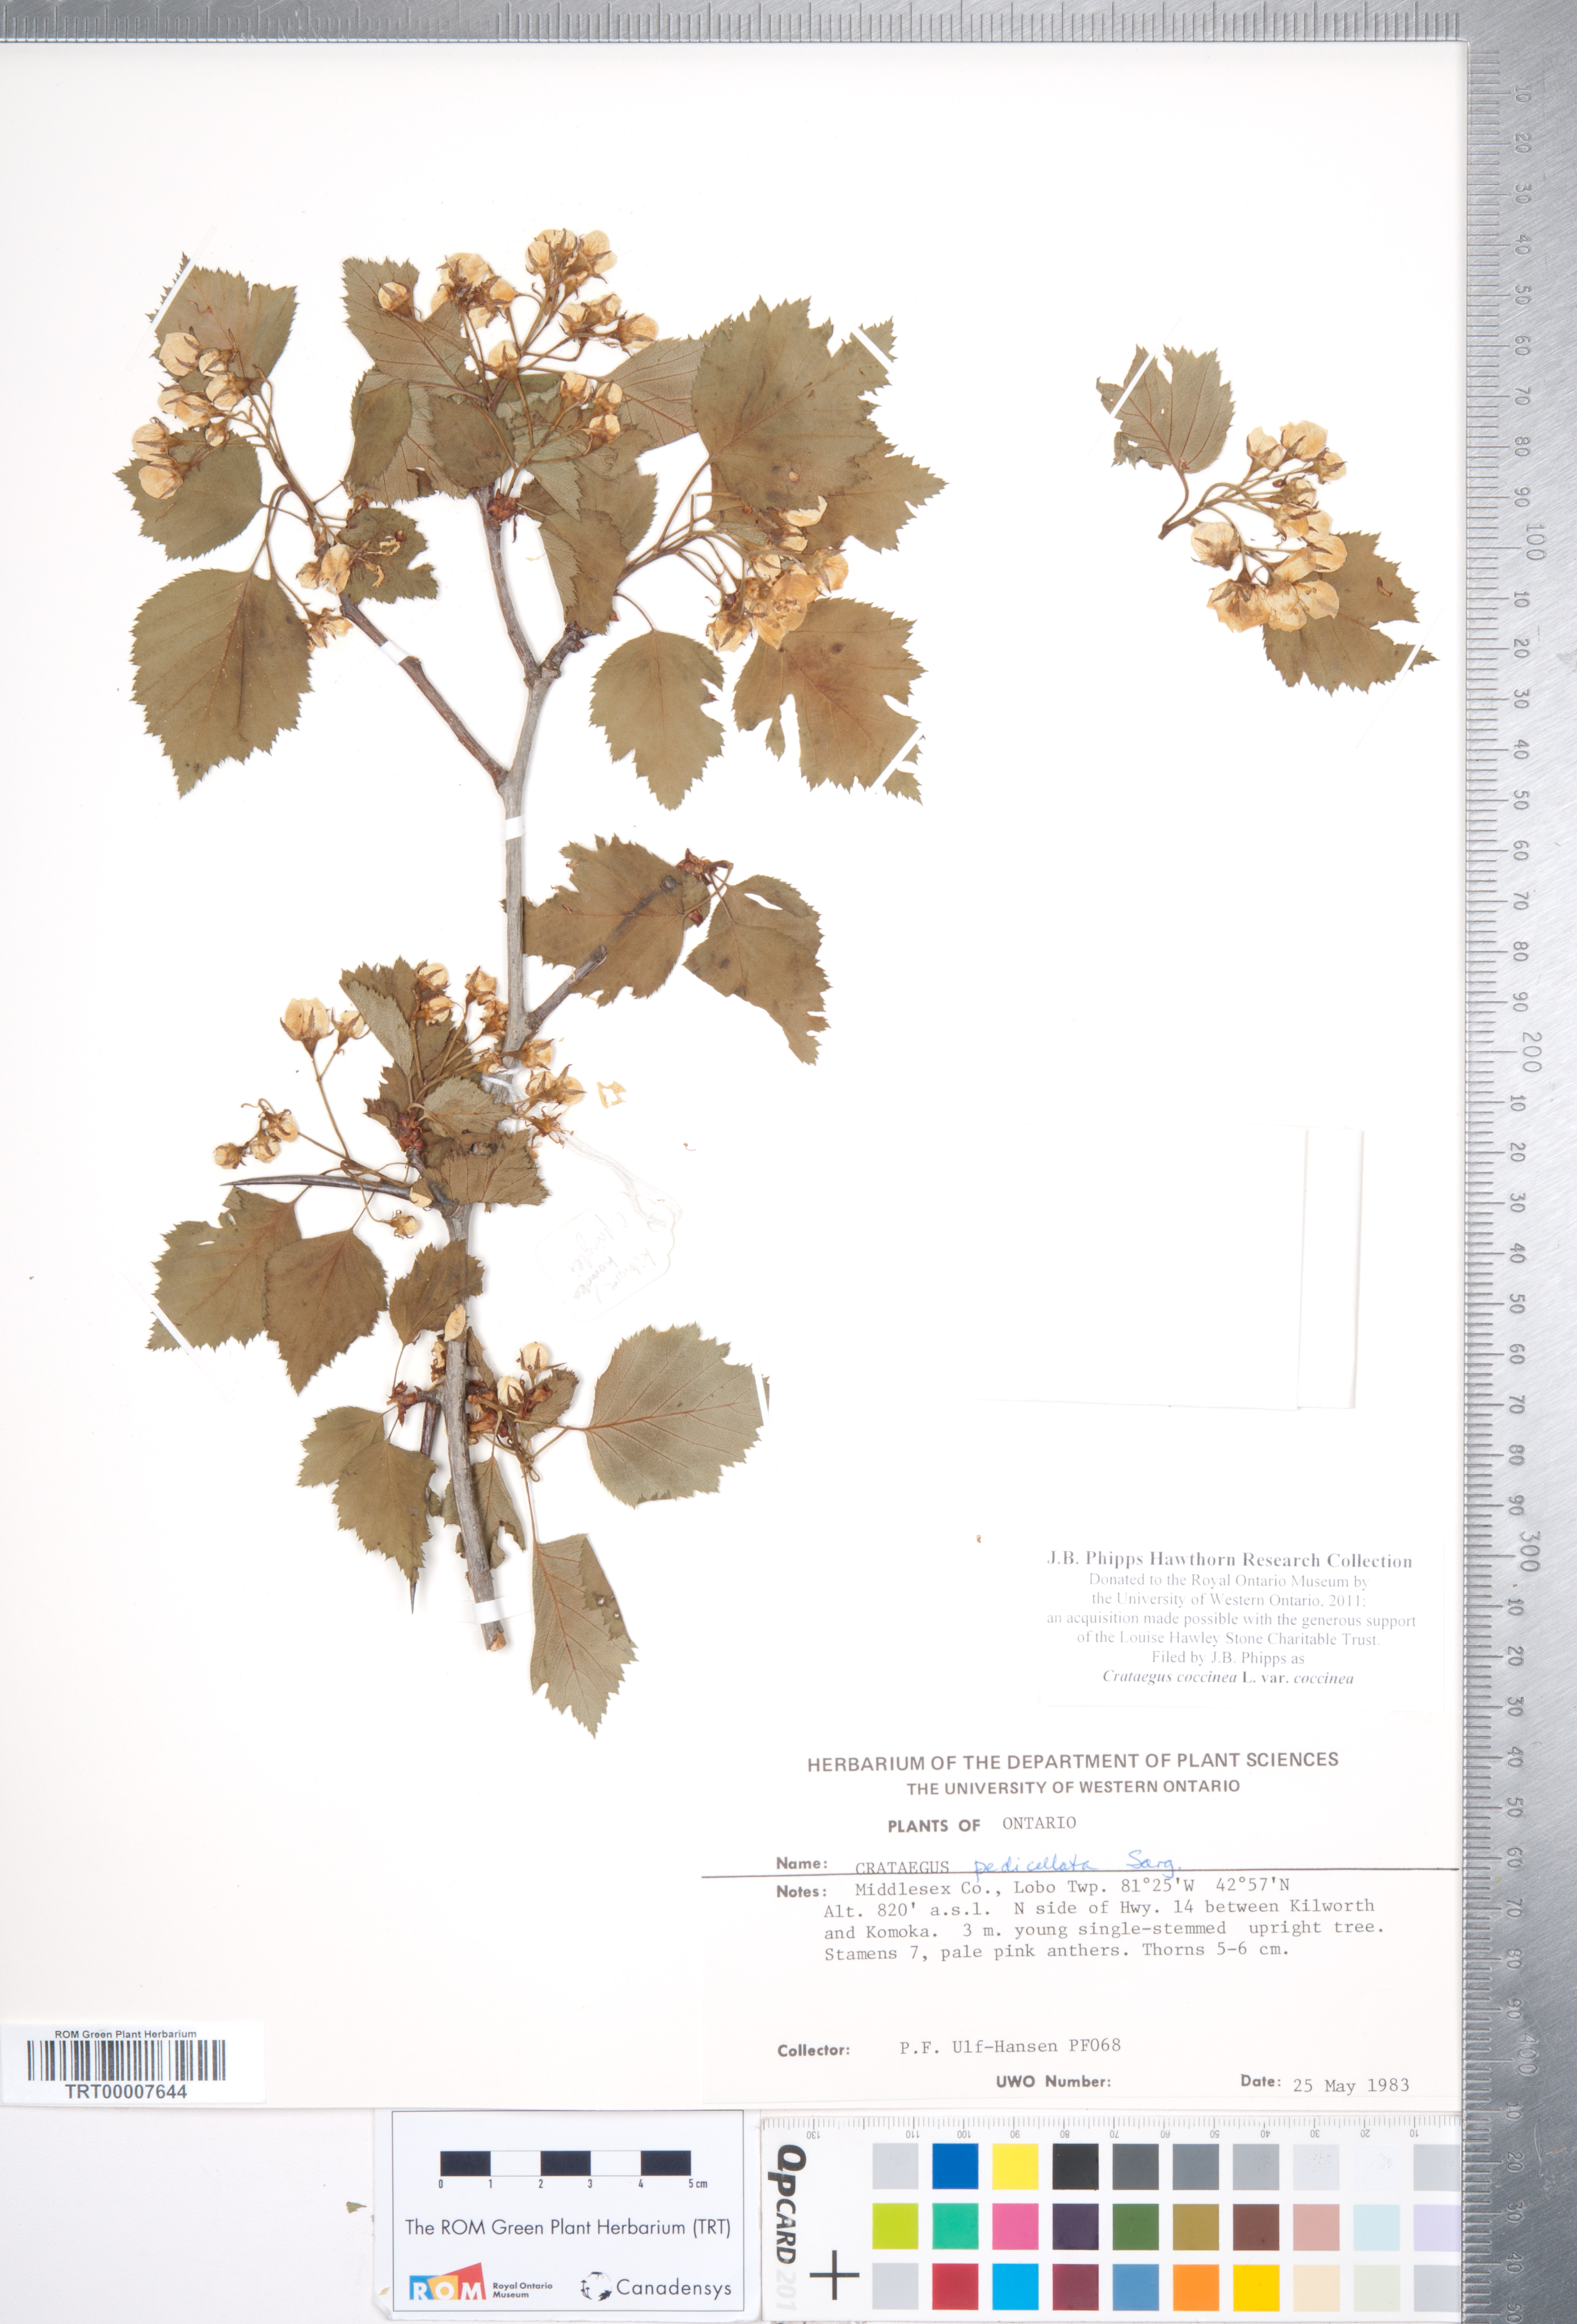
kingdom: Plantae
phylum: Tracheophyta
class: Magnoliopsida
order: Rosales
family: Rosaceae
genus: Crataegus
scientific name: Crataegus coccinea
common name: Scarlet hawthorn
